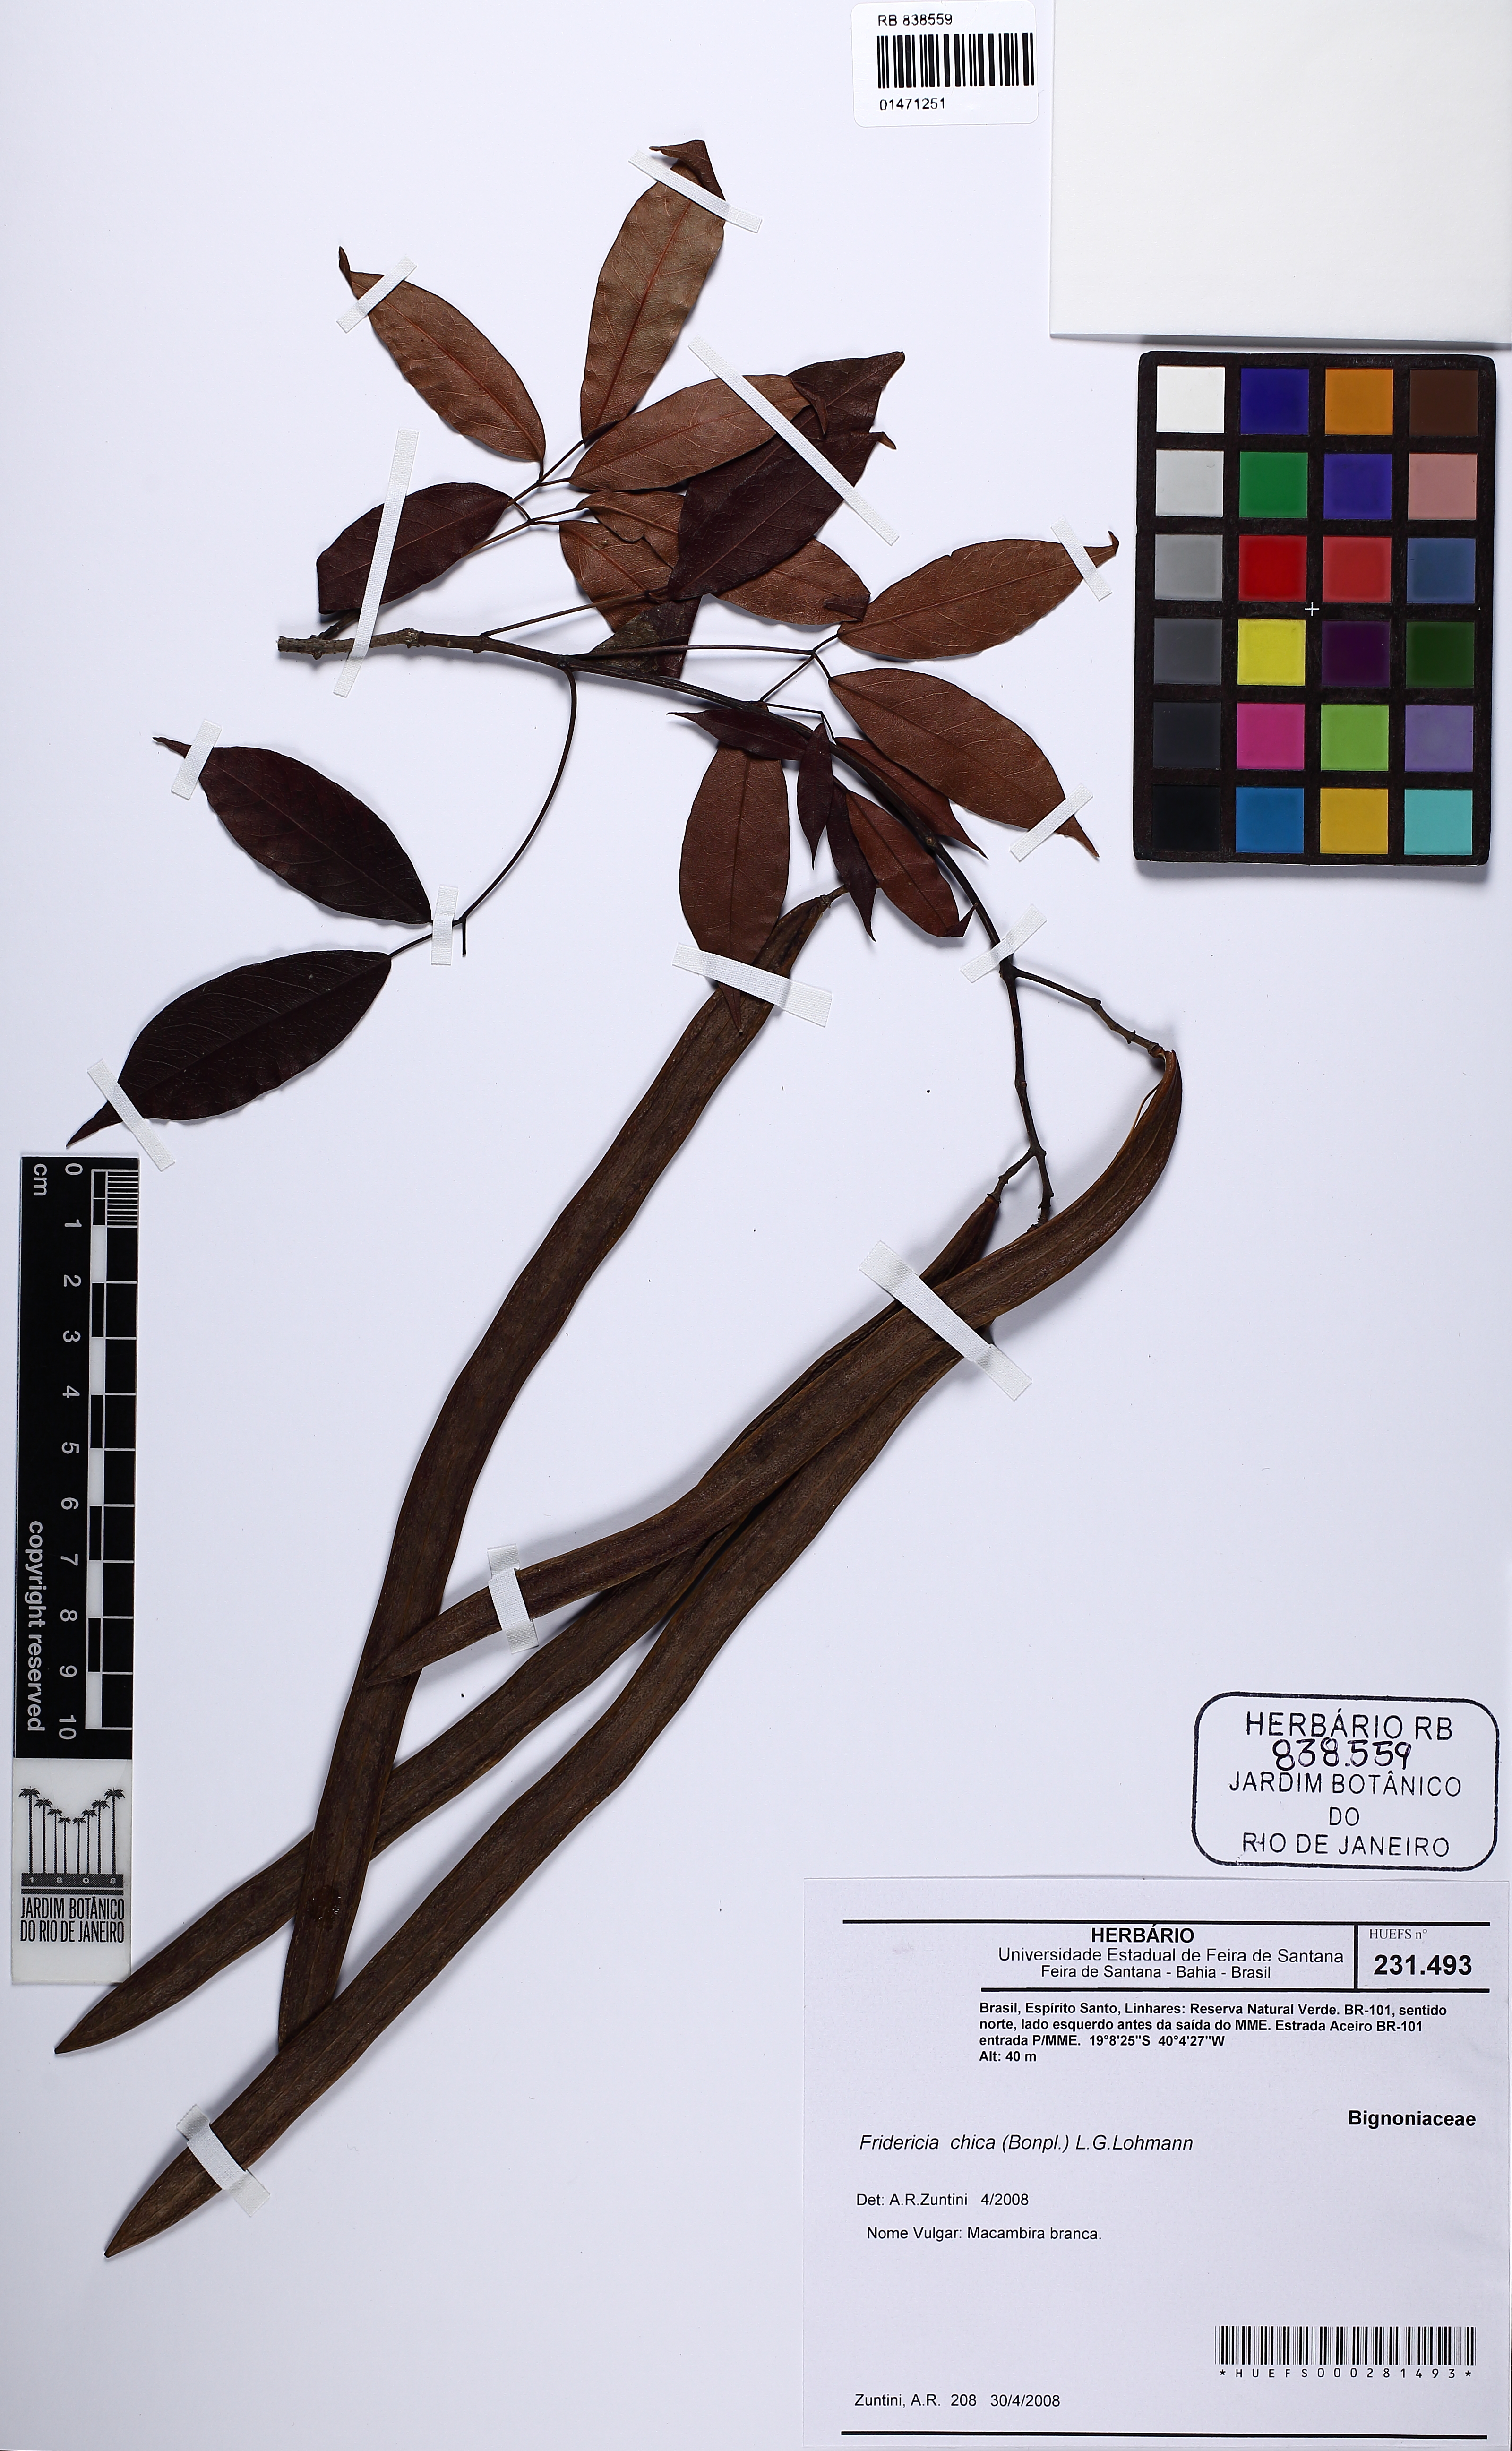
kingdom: Plantae
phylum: Tracheophyta
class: Magnoliopsida
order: Lamiales
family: Bignoniaceae
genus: Fridericia
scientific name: Fridericia chica
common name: Cricketvine
